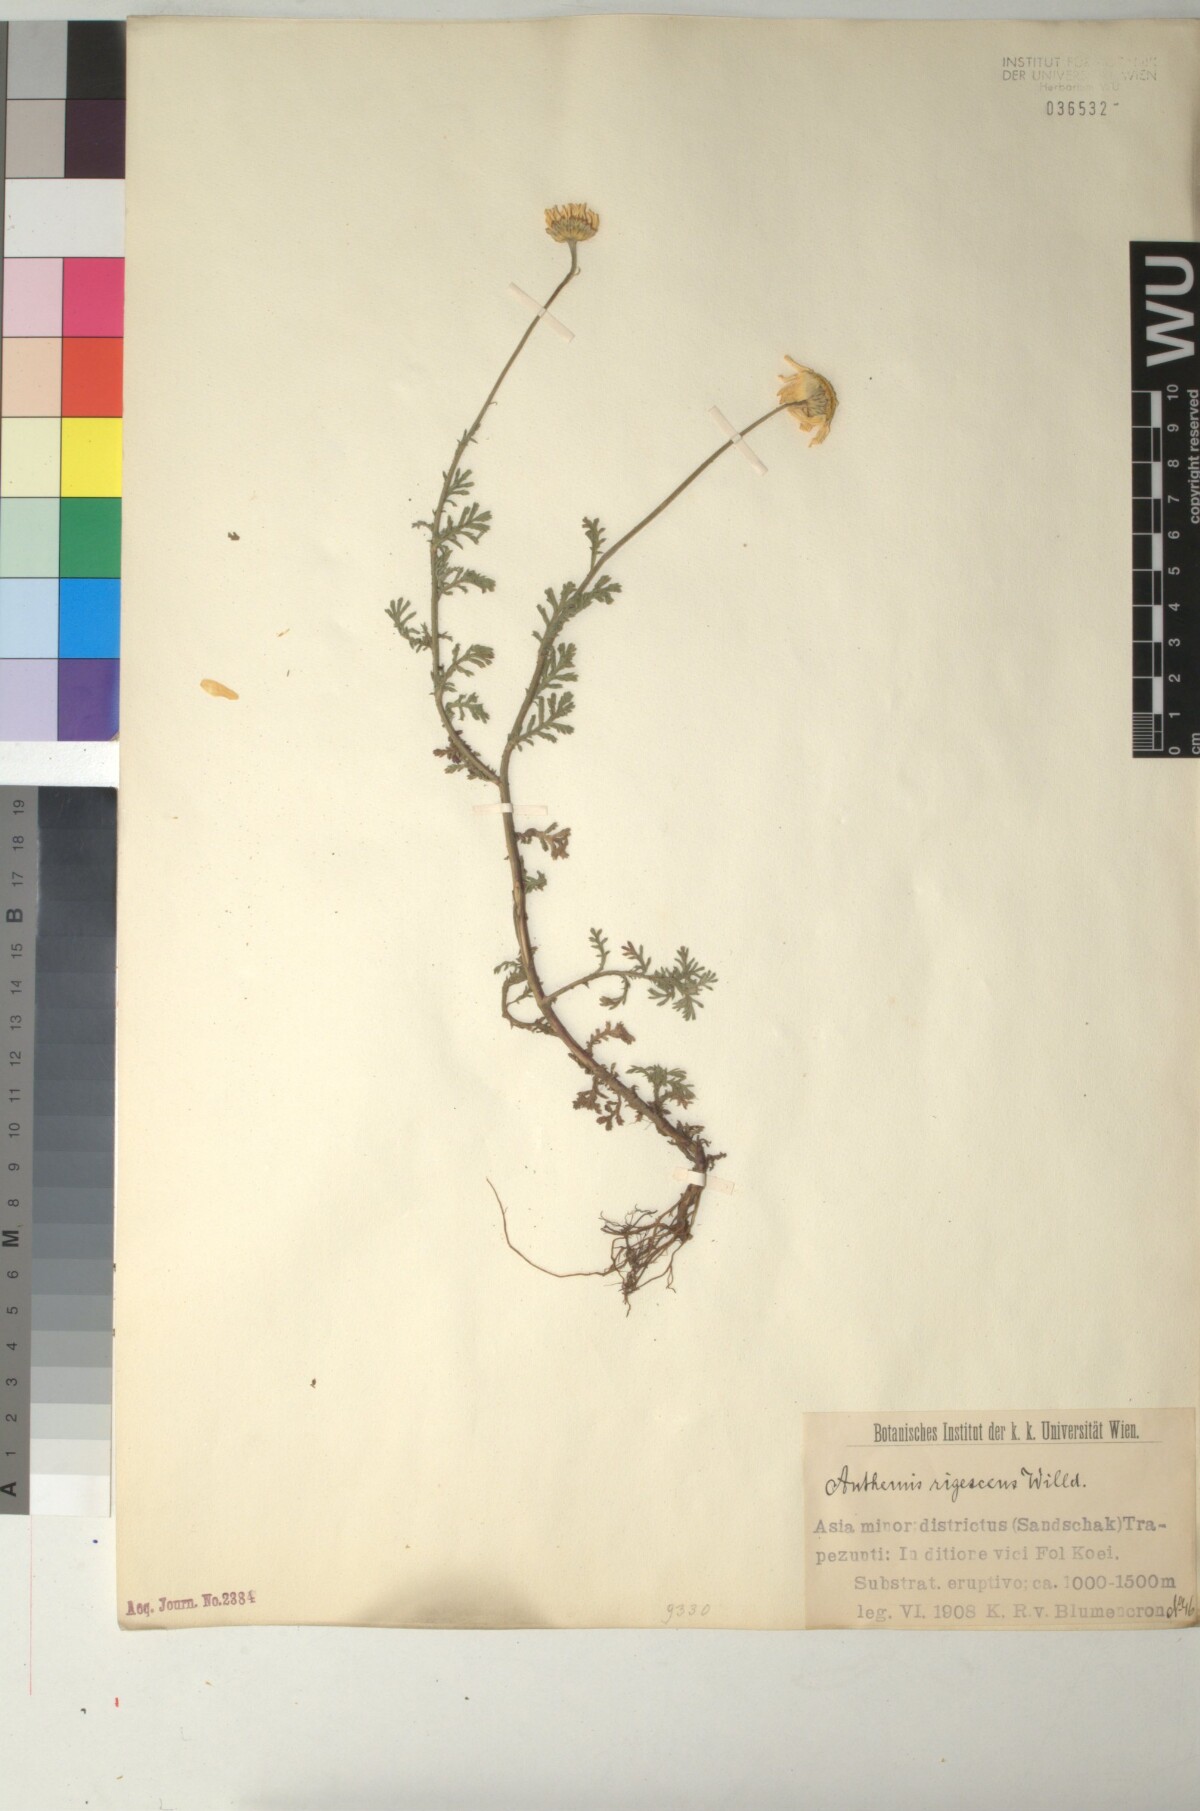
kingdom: Plantae
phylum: Tracheophyta
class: Magnoliopsida
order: Asterales
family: Asteraceae
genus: Cota
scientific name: Cota triumfetti
